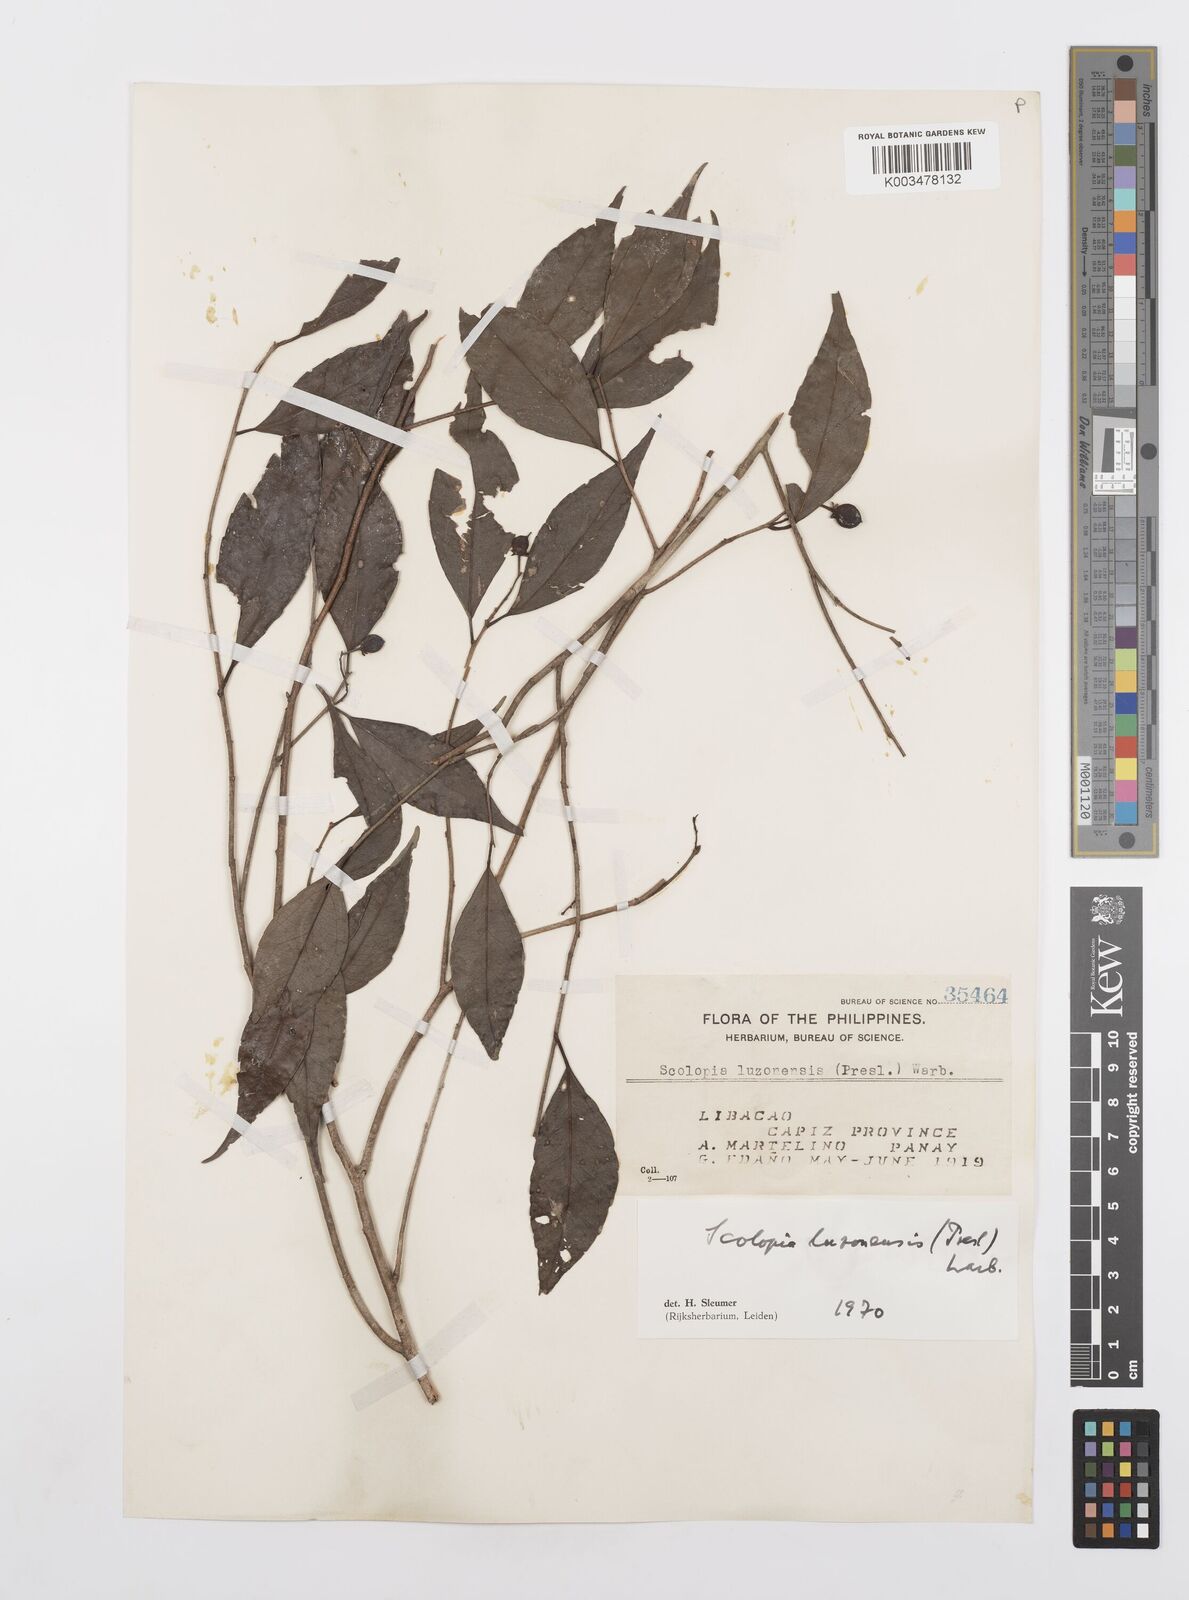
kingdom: Plantae
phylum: Tracheophyta
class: Magnoliopsida
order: Malpighiales
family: Salicaceae
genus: Scolopia
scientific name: Scolopia luzonensis
